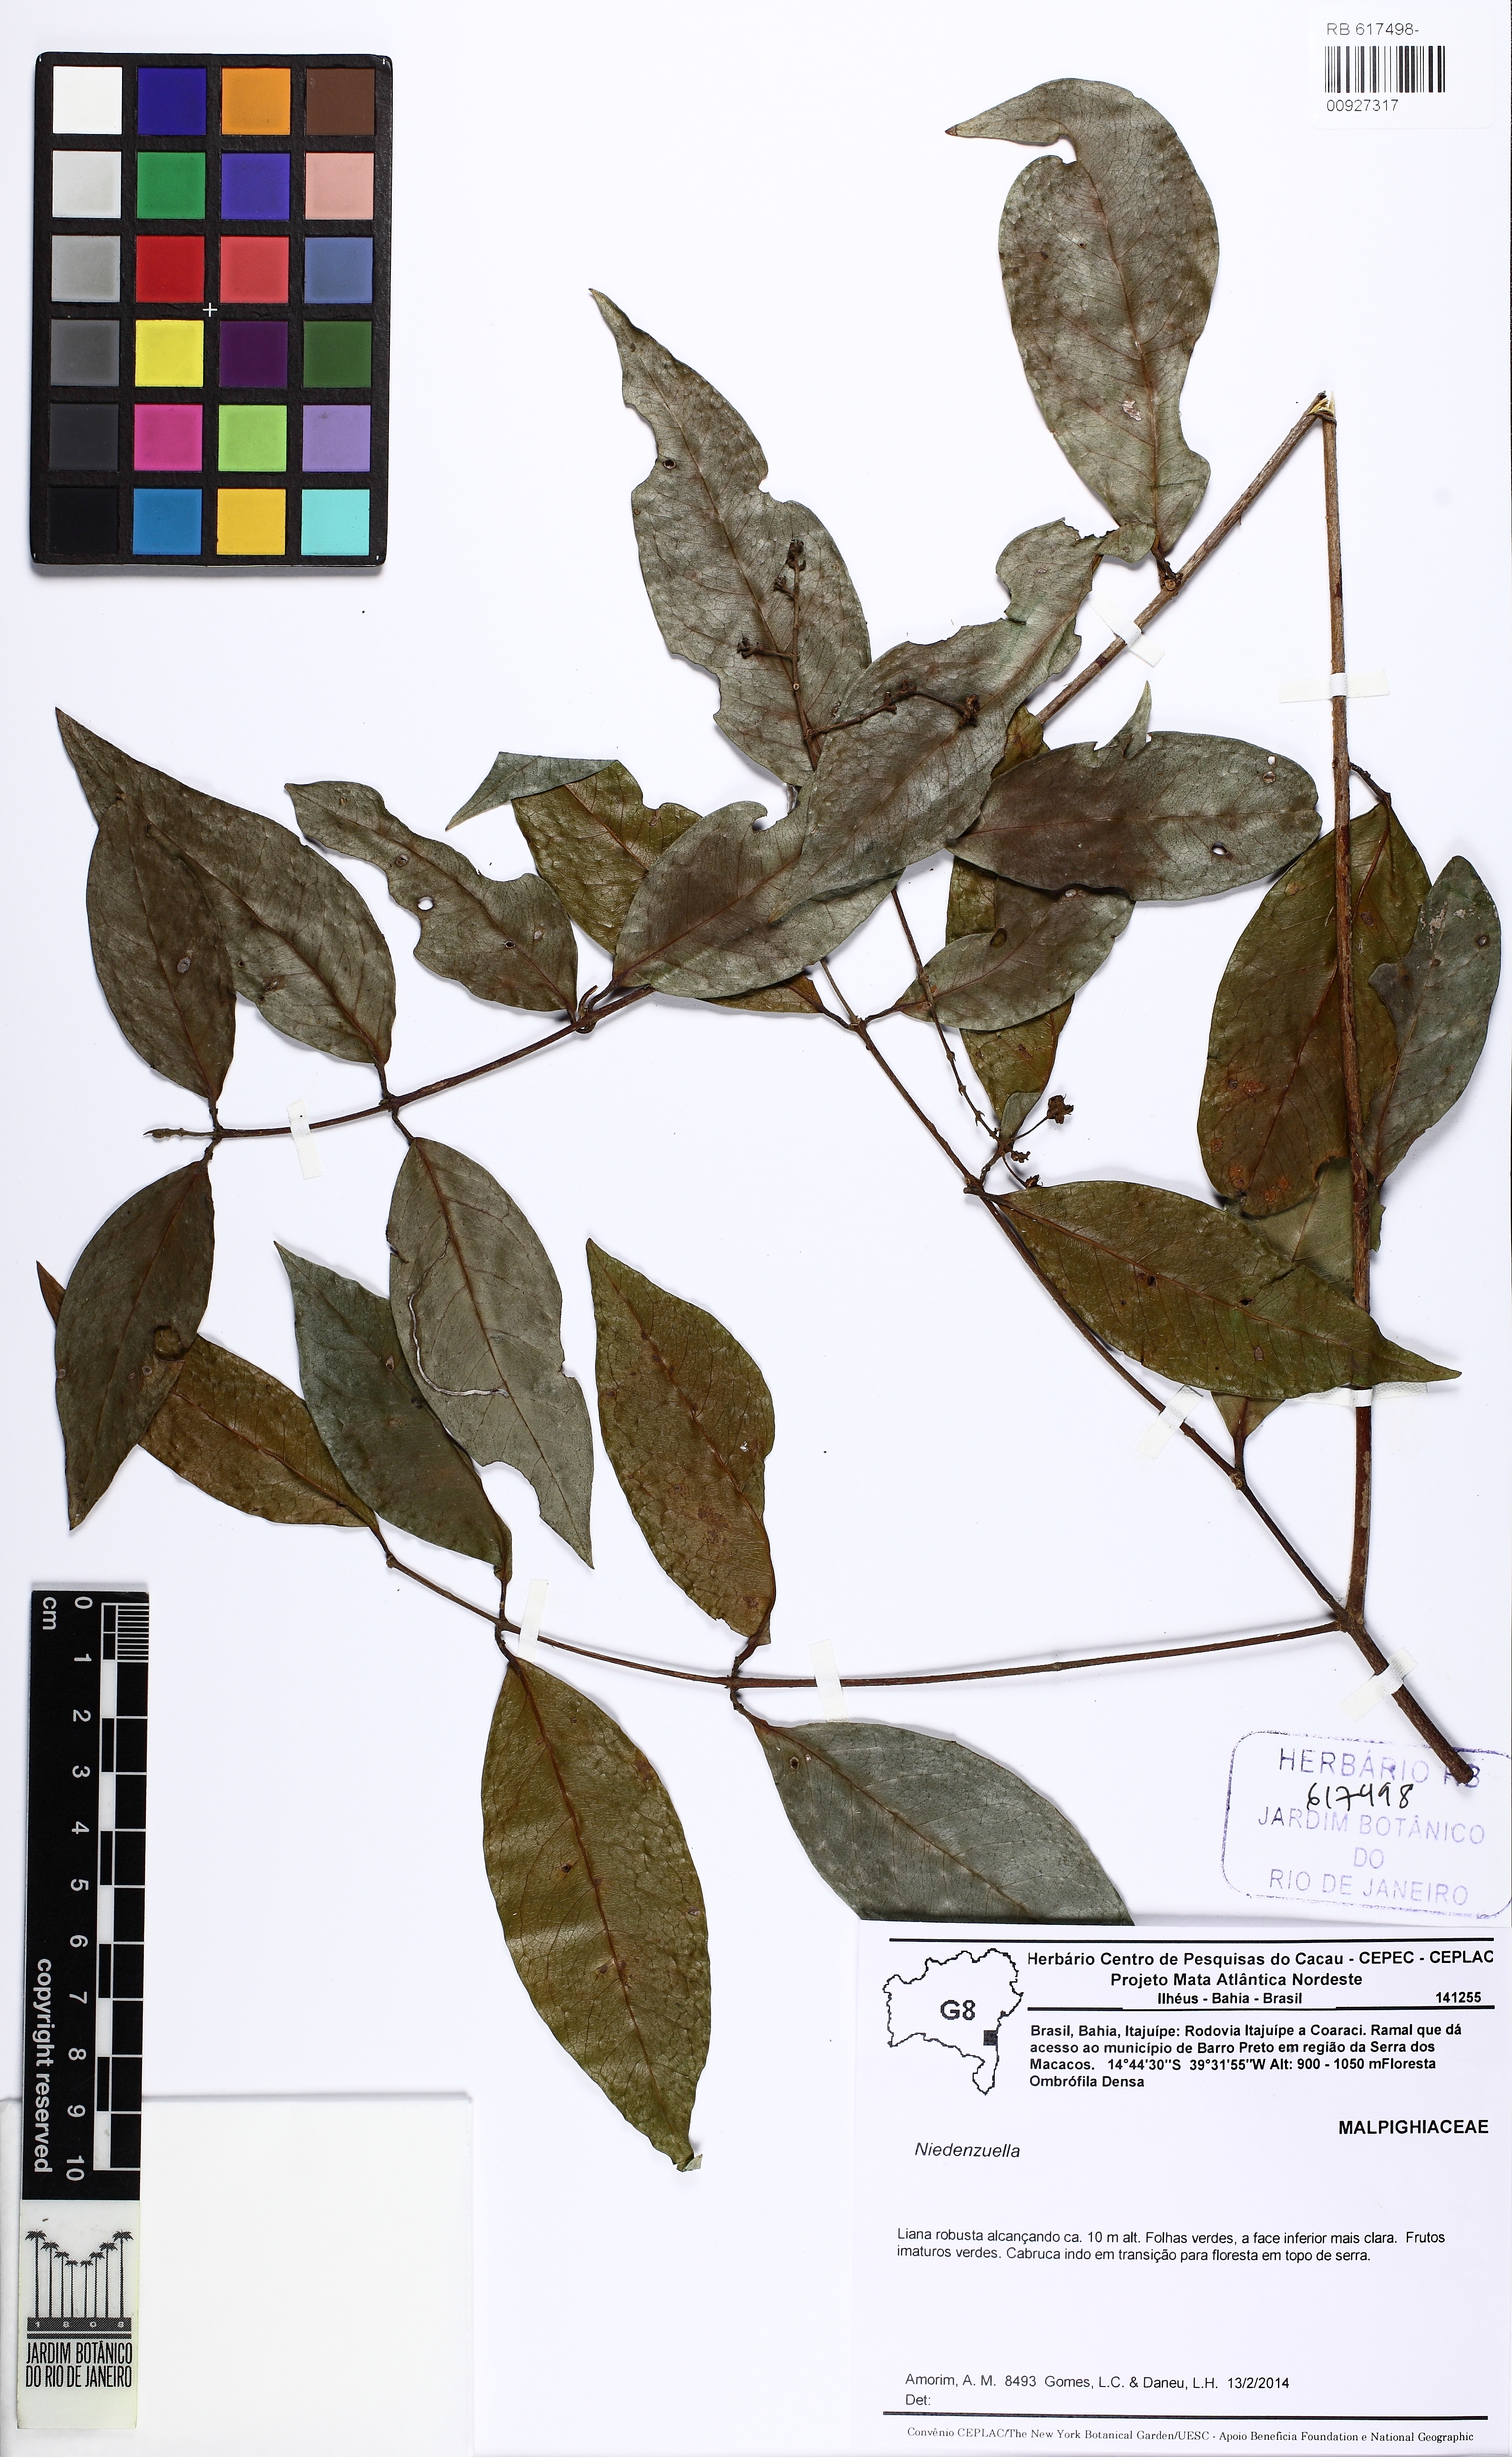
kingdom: Plantae
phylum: Tracheophyta
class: Magnoliopsida
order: Malpighiales
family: Malpighiaceae
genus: Niedenzuella
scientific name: Niedenzuella
